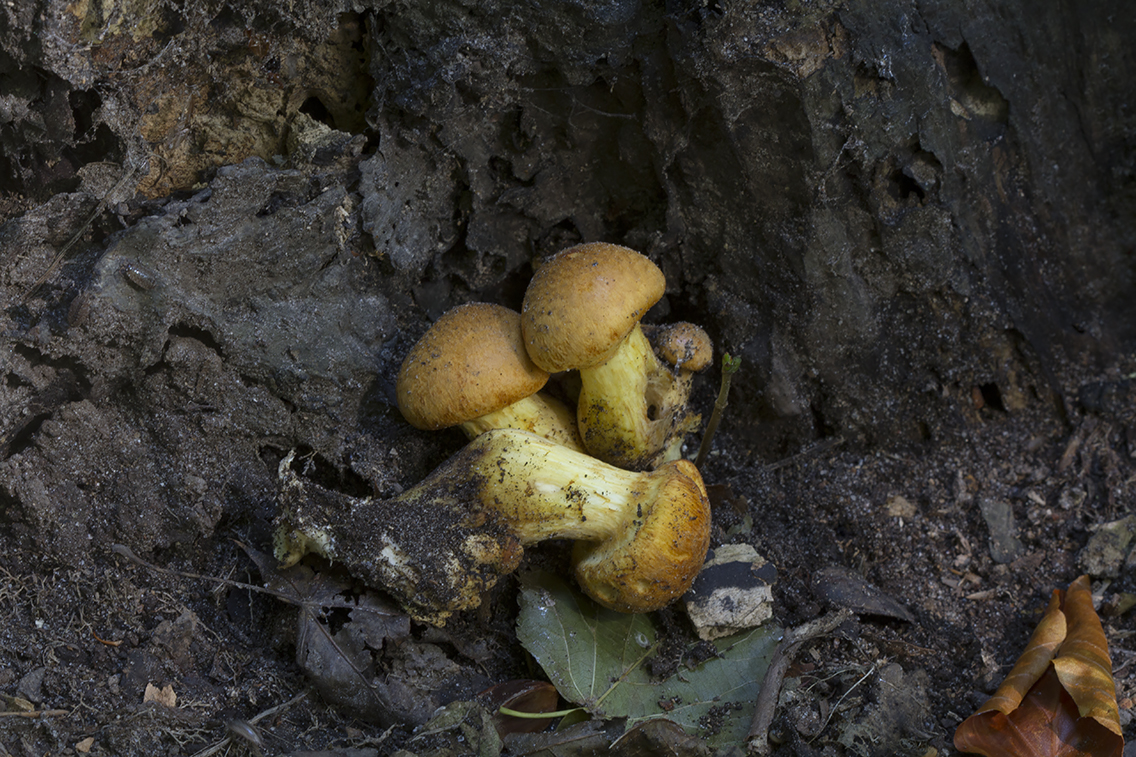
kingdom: Fungi
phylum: Basidiomycota
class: Agaricomycetes
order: Agaricales
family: Hymenogastraceae
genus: Gymnopilus
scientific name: Gymnopilus spectabilis
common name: fibret flammehat
